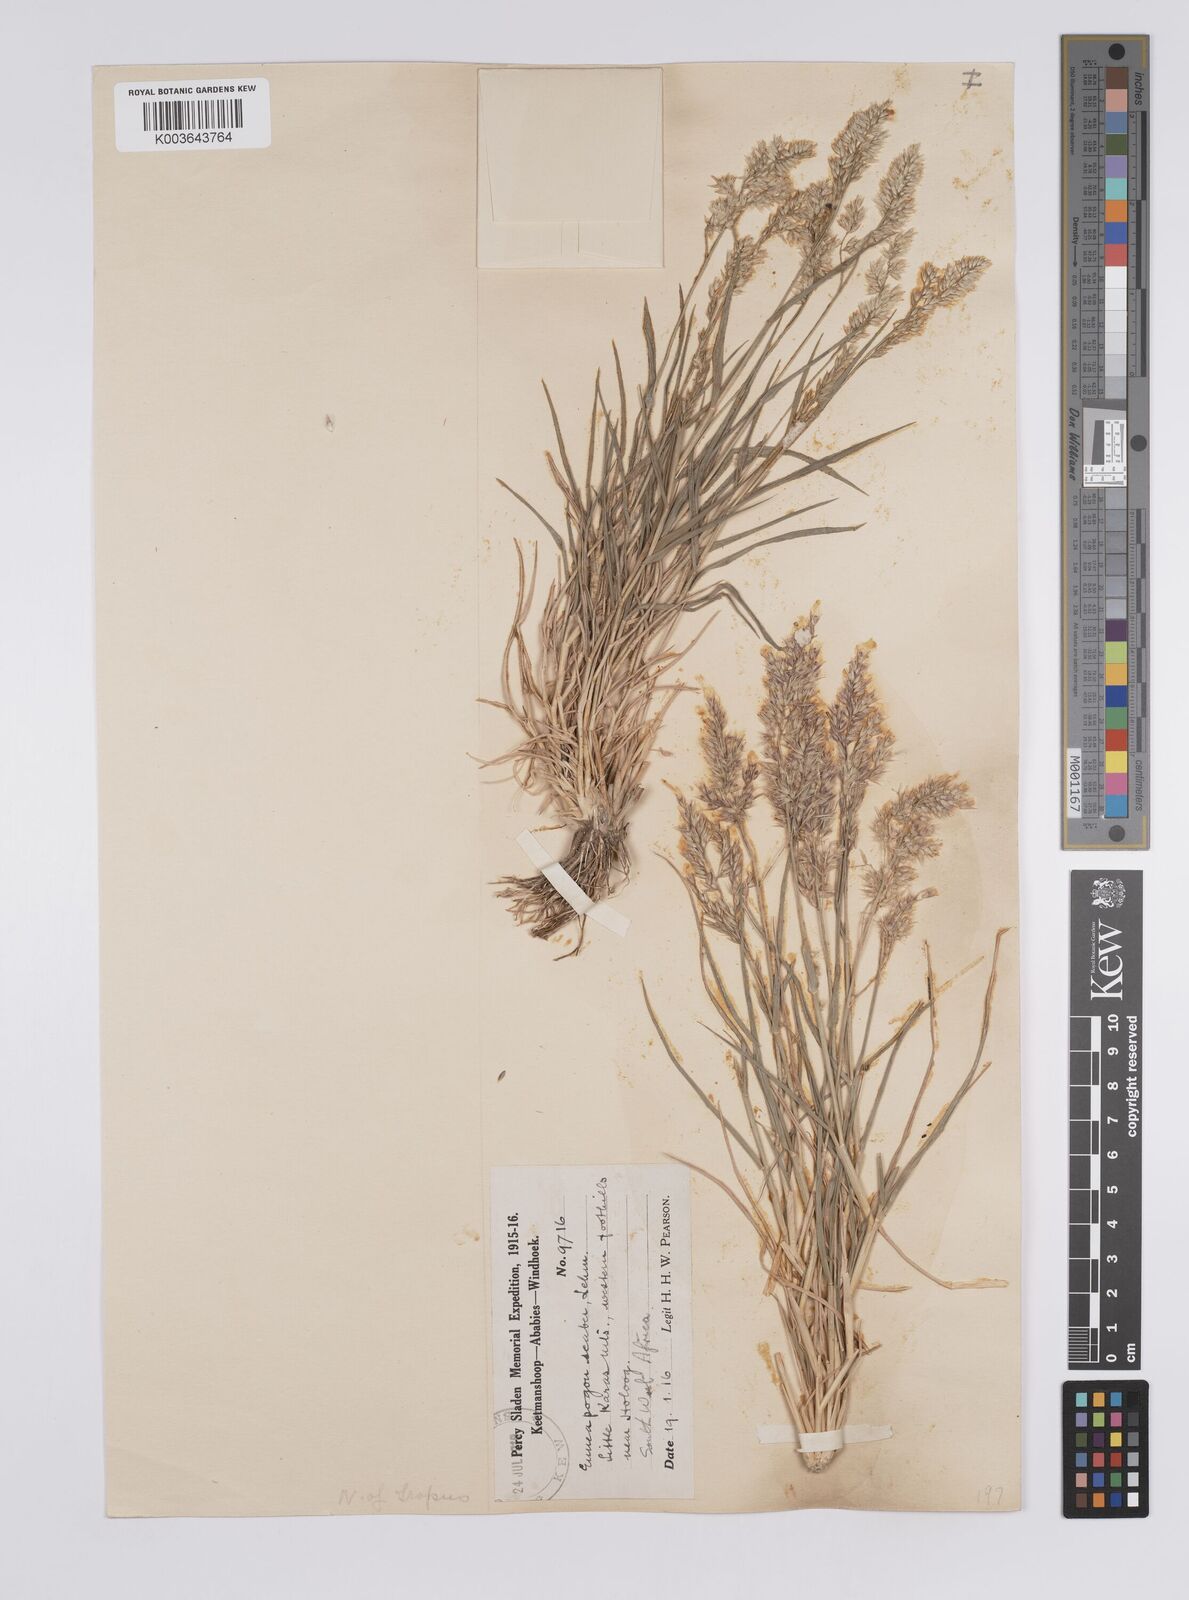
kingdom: Plantae
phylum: Tracheophyta
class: Liliopsida
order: Poales
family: Poaceae
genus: Enneapogon
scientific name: Enneapogon scaber
